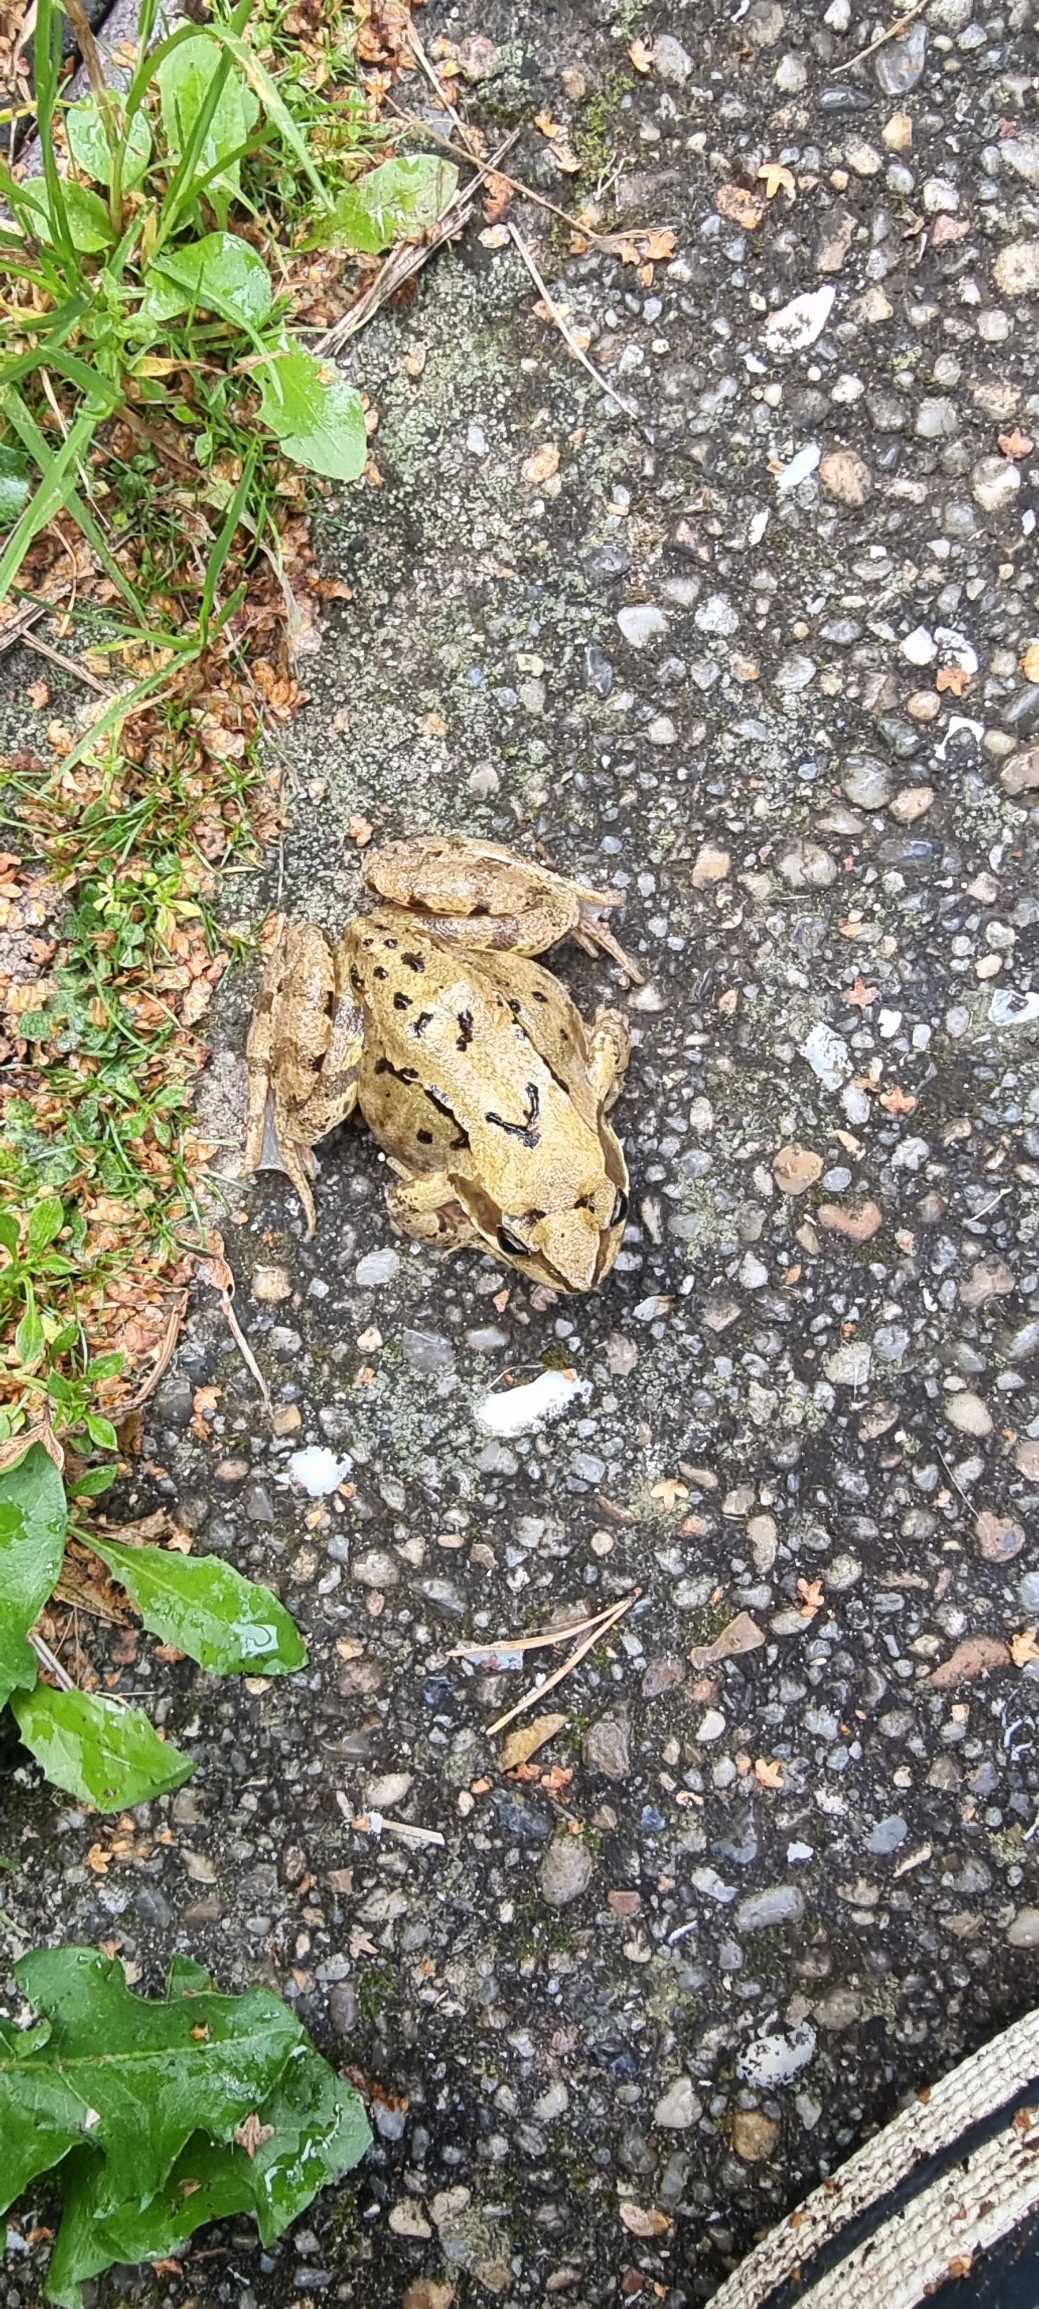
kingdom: Animalia
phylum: Chordata
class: Amphibia
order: Anura
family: Ranidae
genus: Rana
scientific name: Rana temporaria
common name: Butsnudet frø
